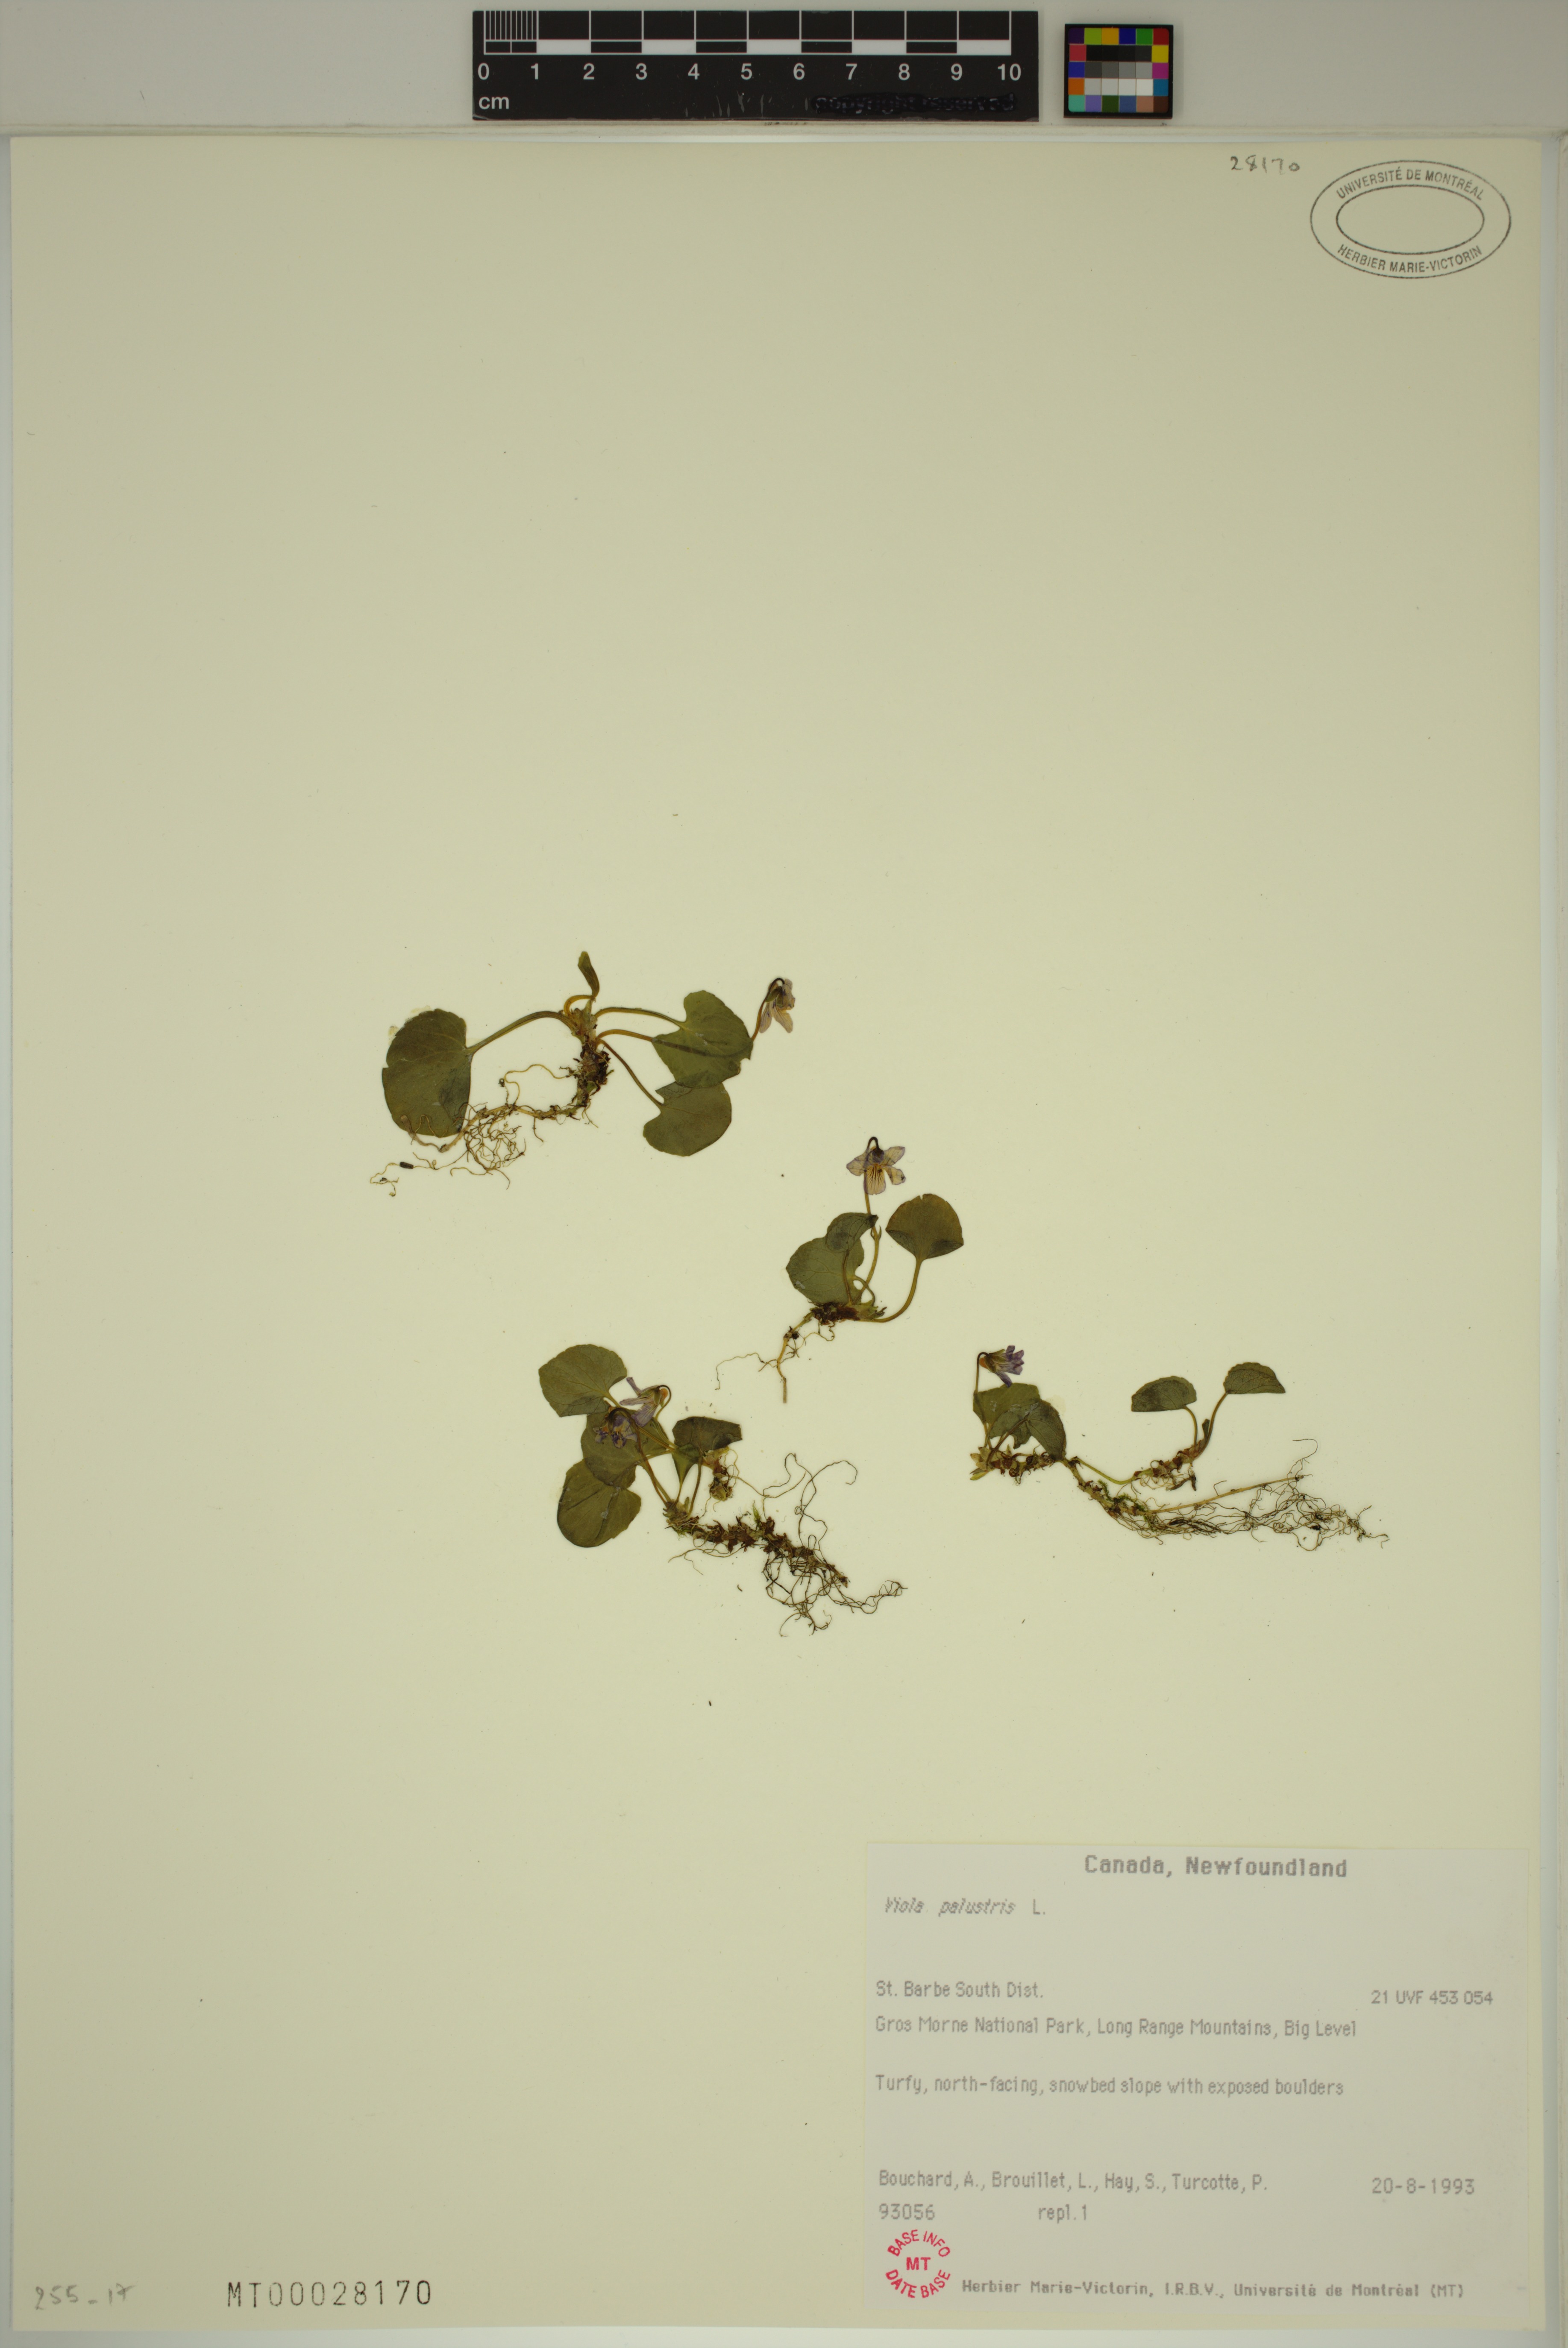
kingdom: Plantae
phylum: Tracheophyta
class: Magnoliopsida
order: Malpighiales
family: Violaceae
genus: Viola
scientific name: Viola palustris
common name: Marsh violet
